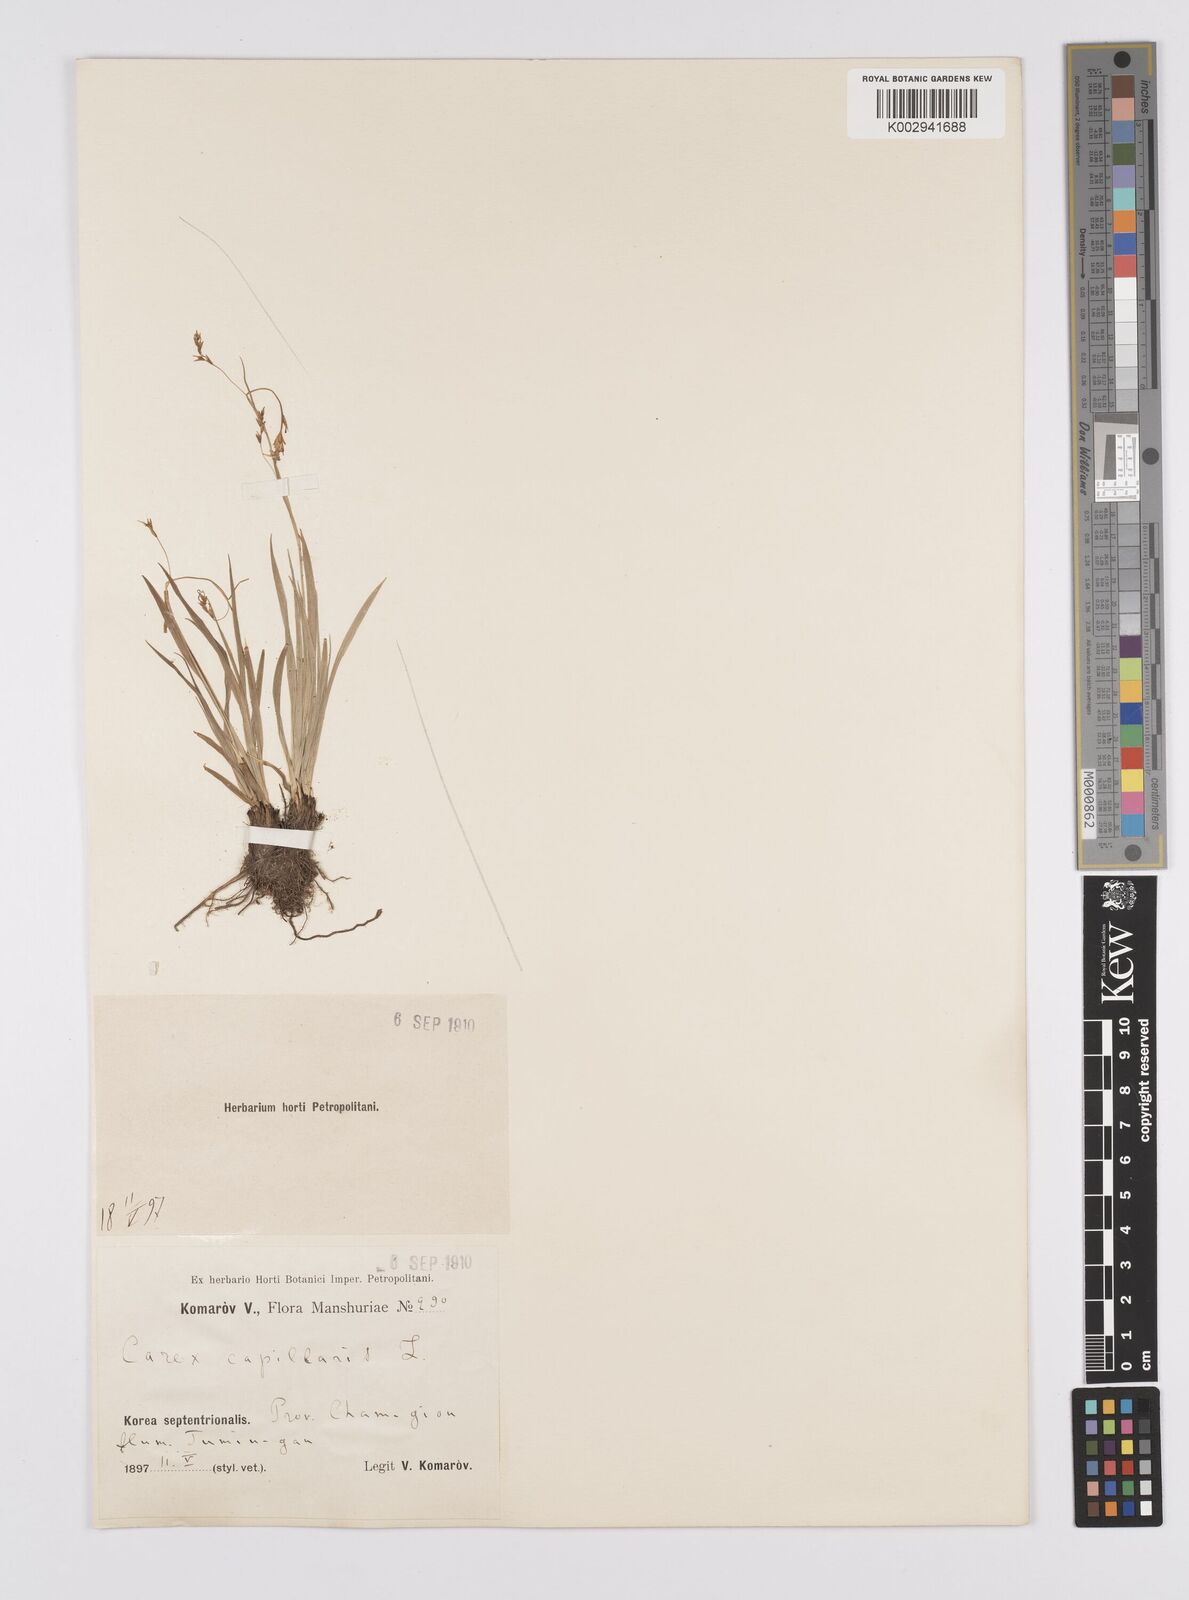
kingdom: Plantae
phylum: Tracheophyta
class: Liliopsida
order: Poales
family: Cyperaceae
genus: Carex
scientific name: Carex capillaris
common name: Hair sedge
